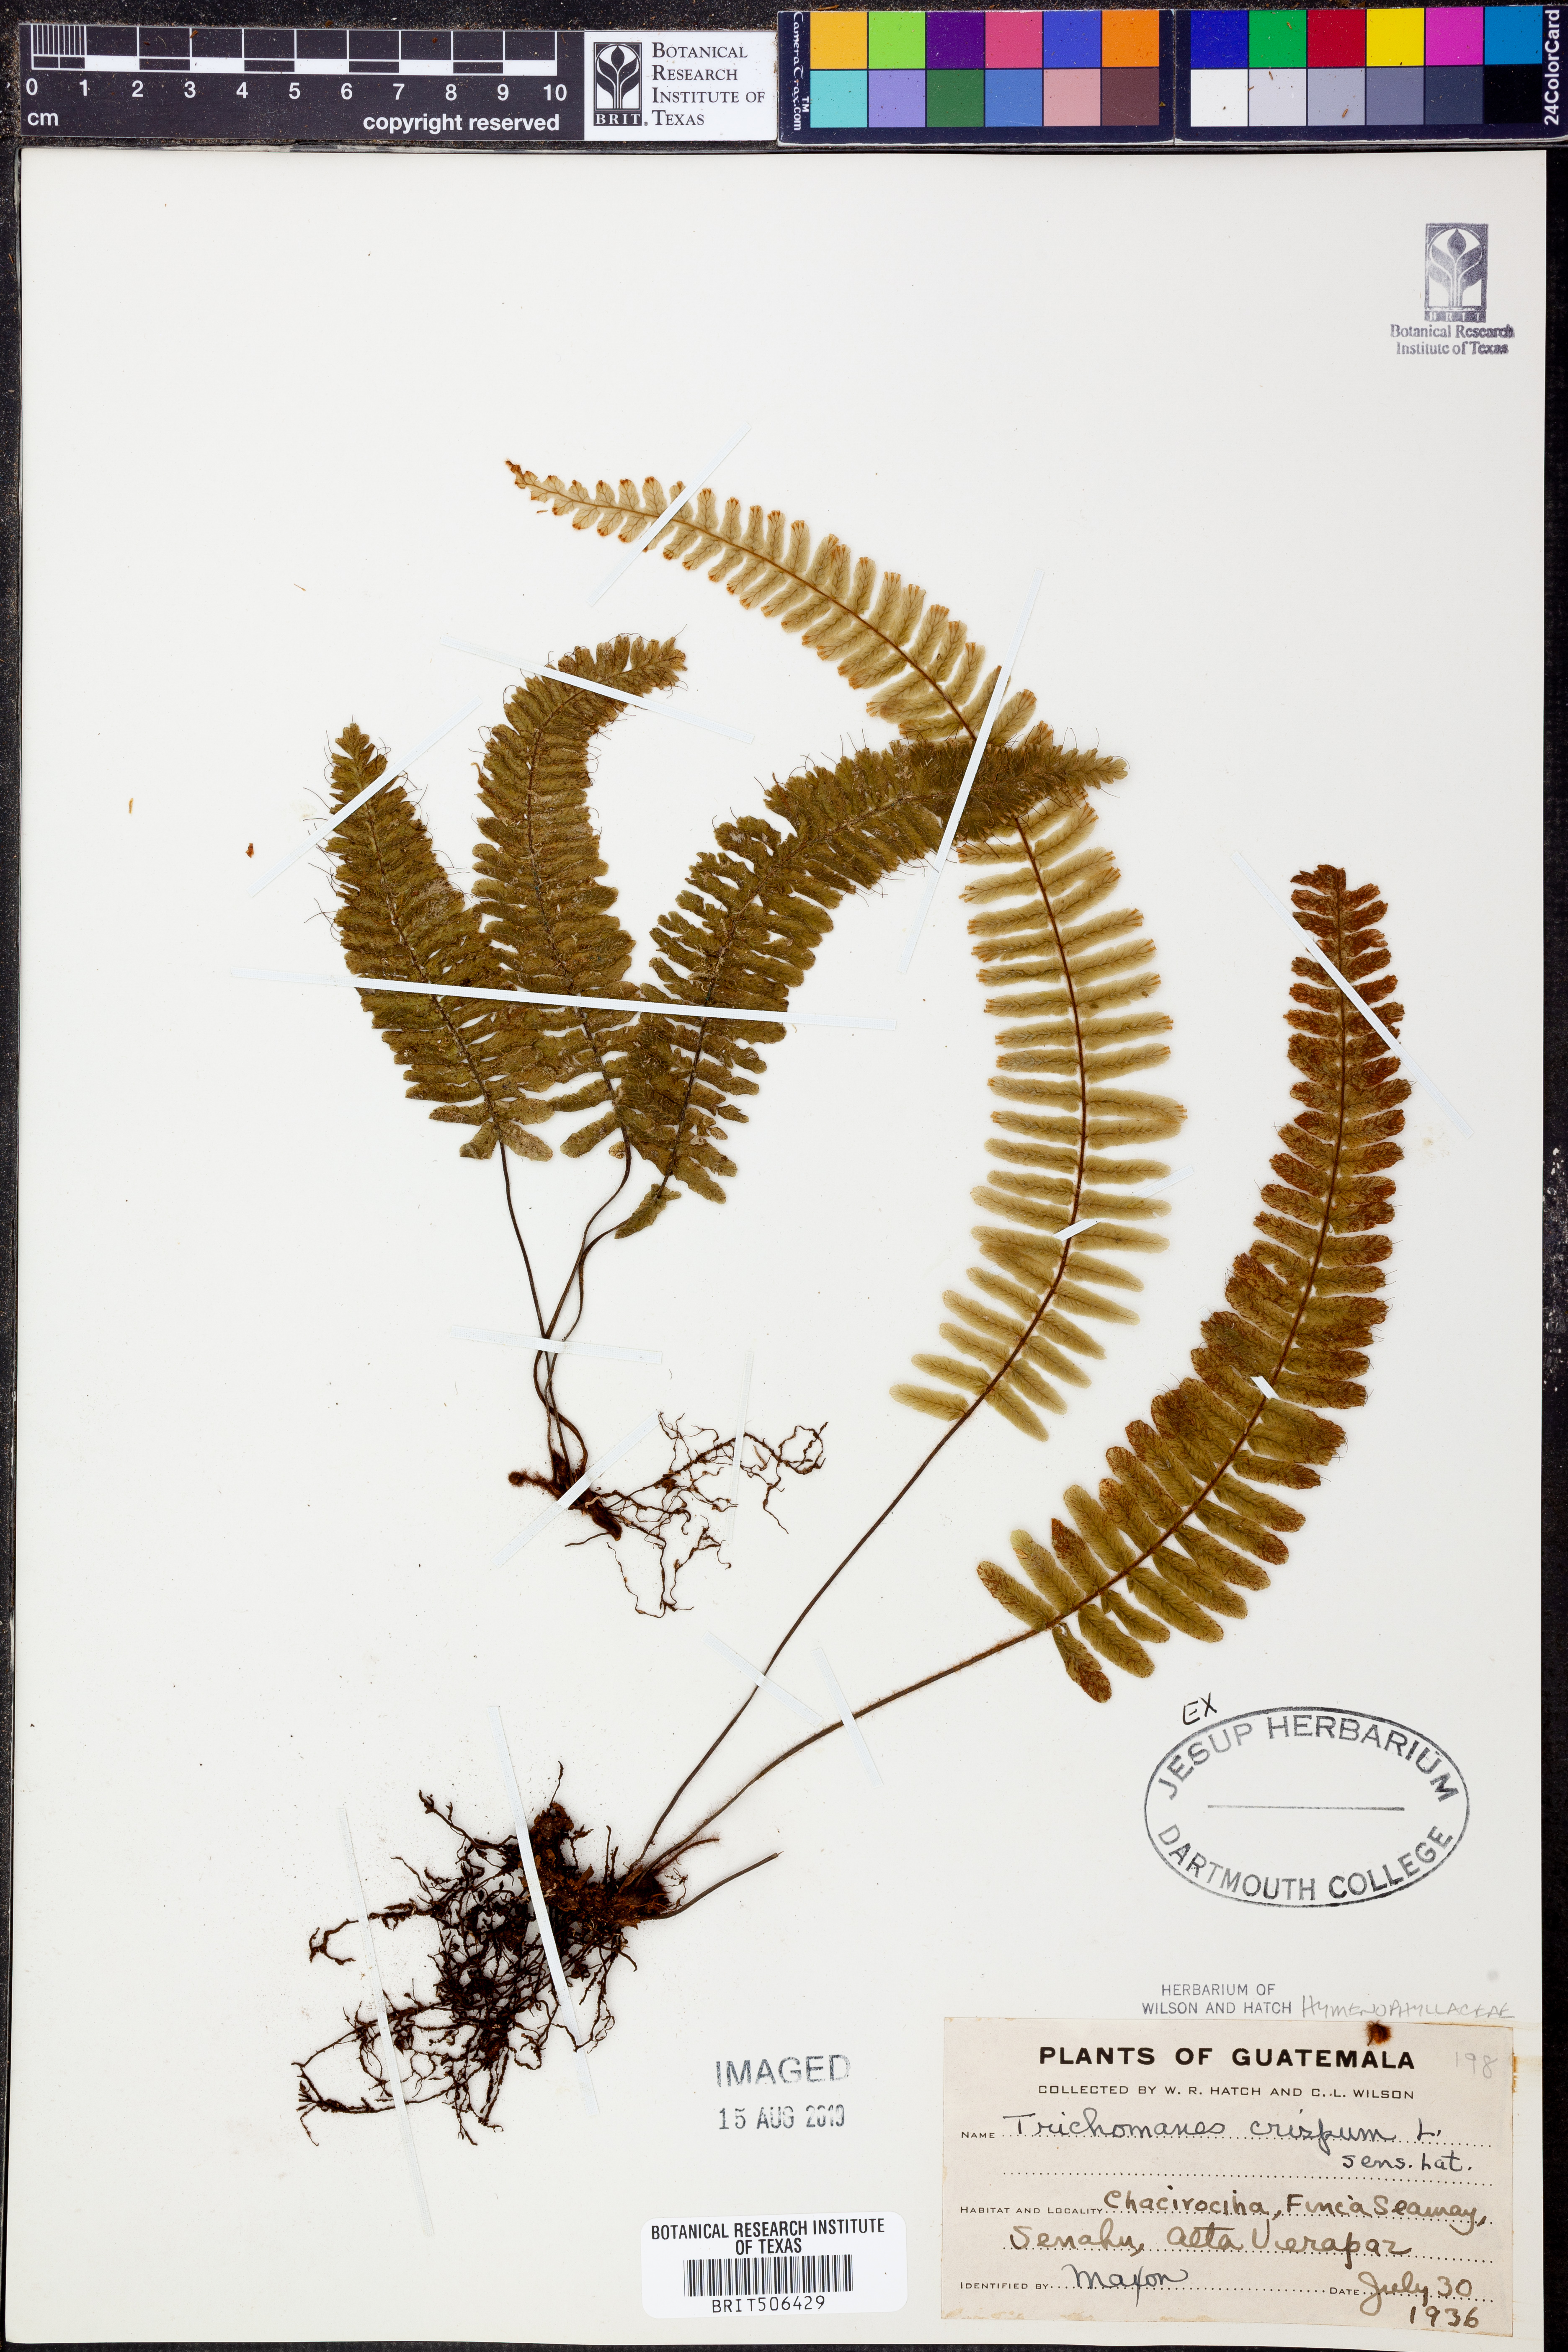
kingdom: Plantae
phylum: Tracheophyta
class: Polypodiopsida
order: Hymenophyllales
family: Hymenophyllaceae
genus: Trichomanes
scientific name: Trichomanes crispum
